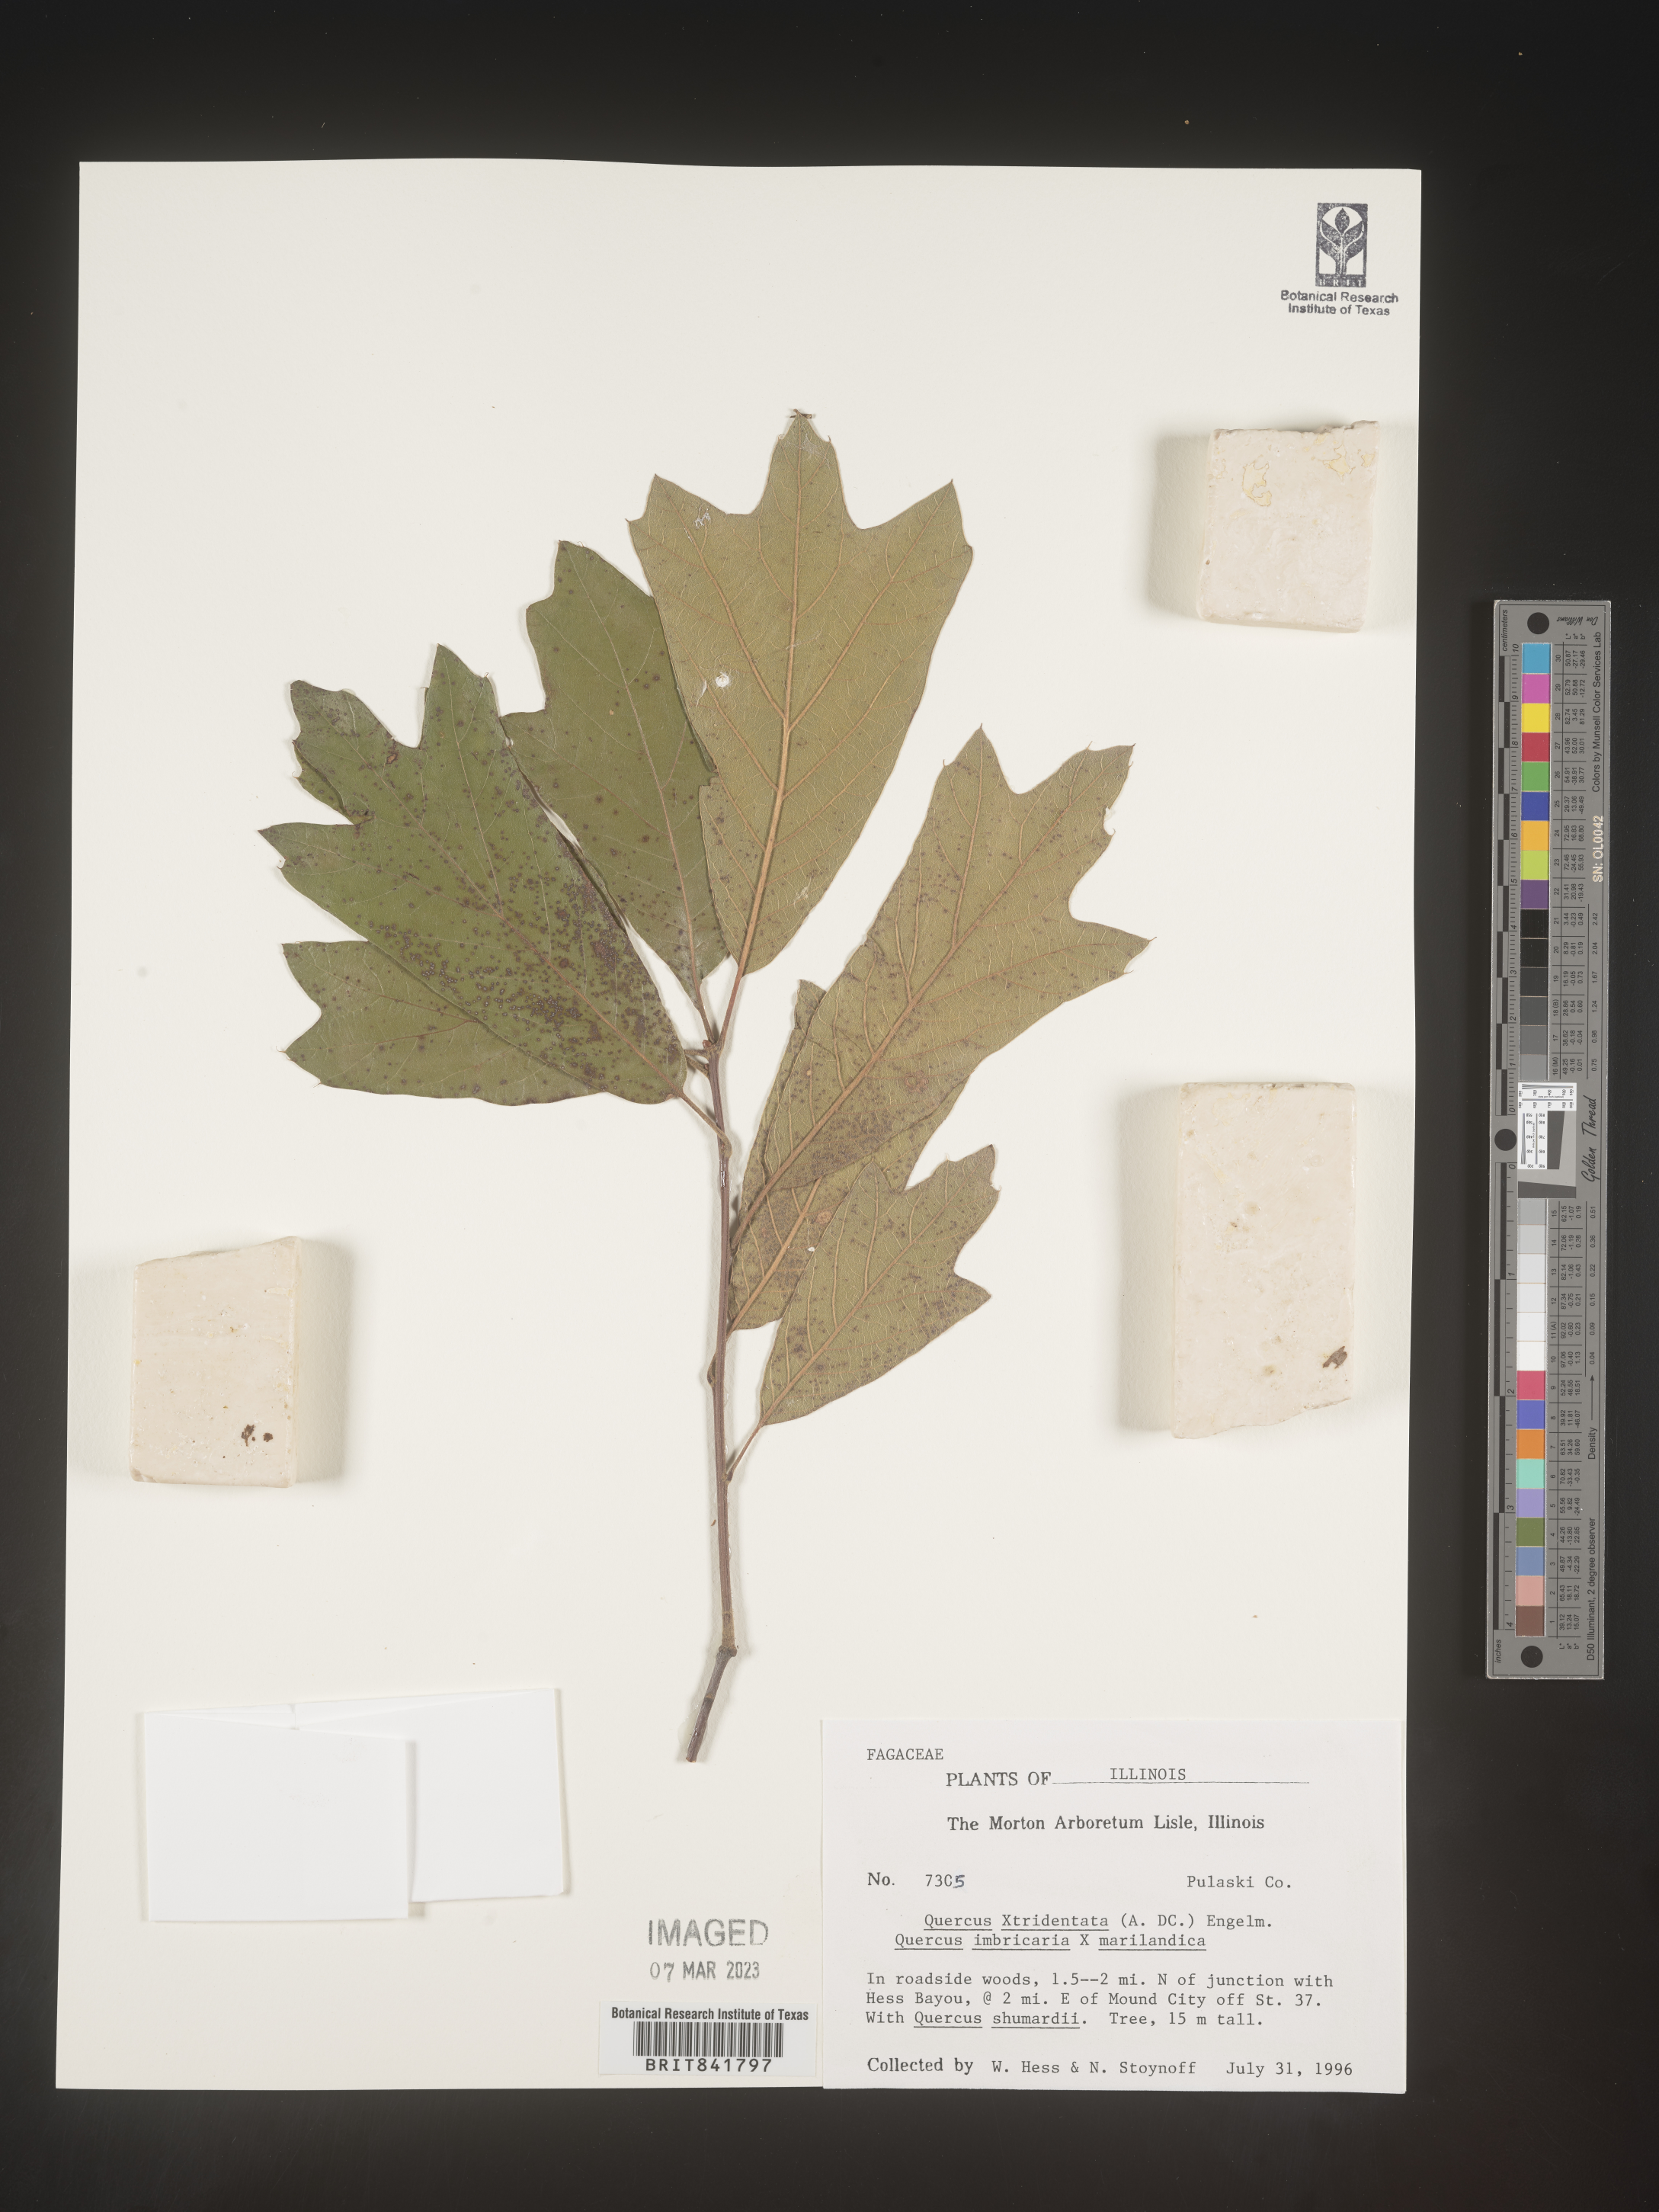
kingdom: Plantae
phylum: Tracheophyta
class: Magnoliopsida
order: Fagales
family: Fagaceae
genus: Quercus
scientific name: Quercus
